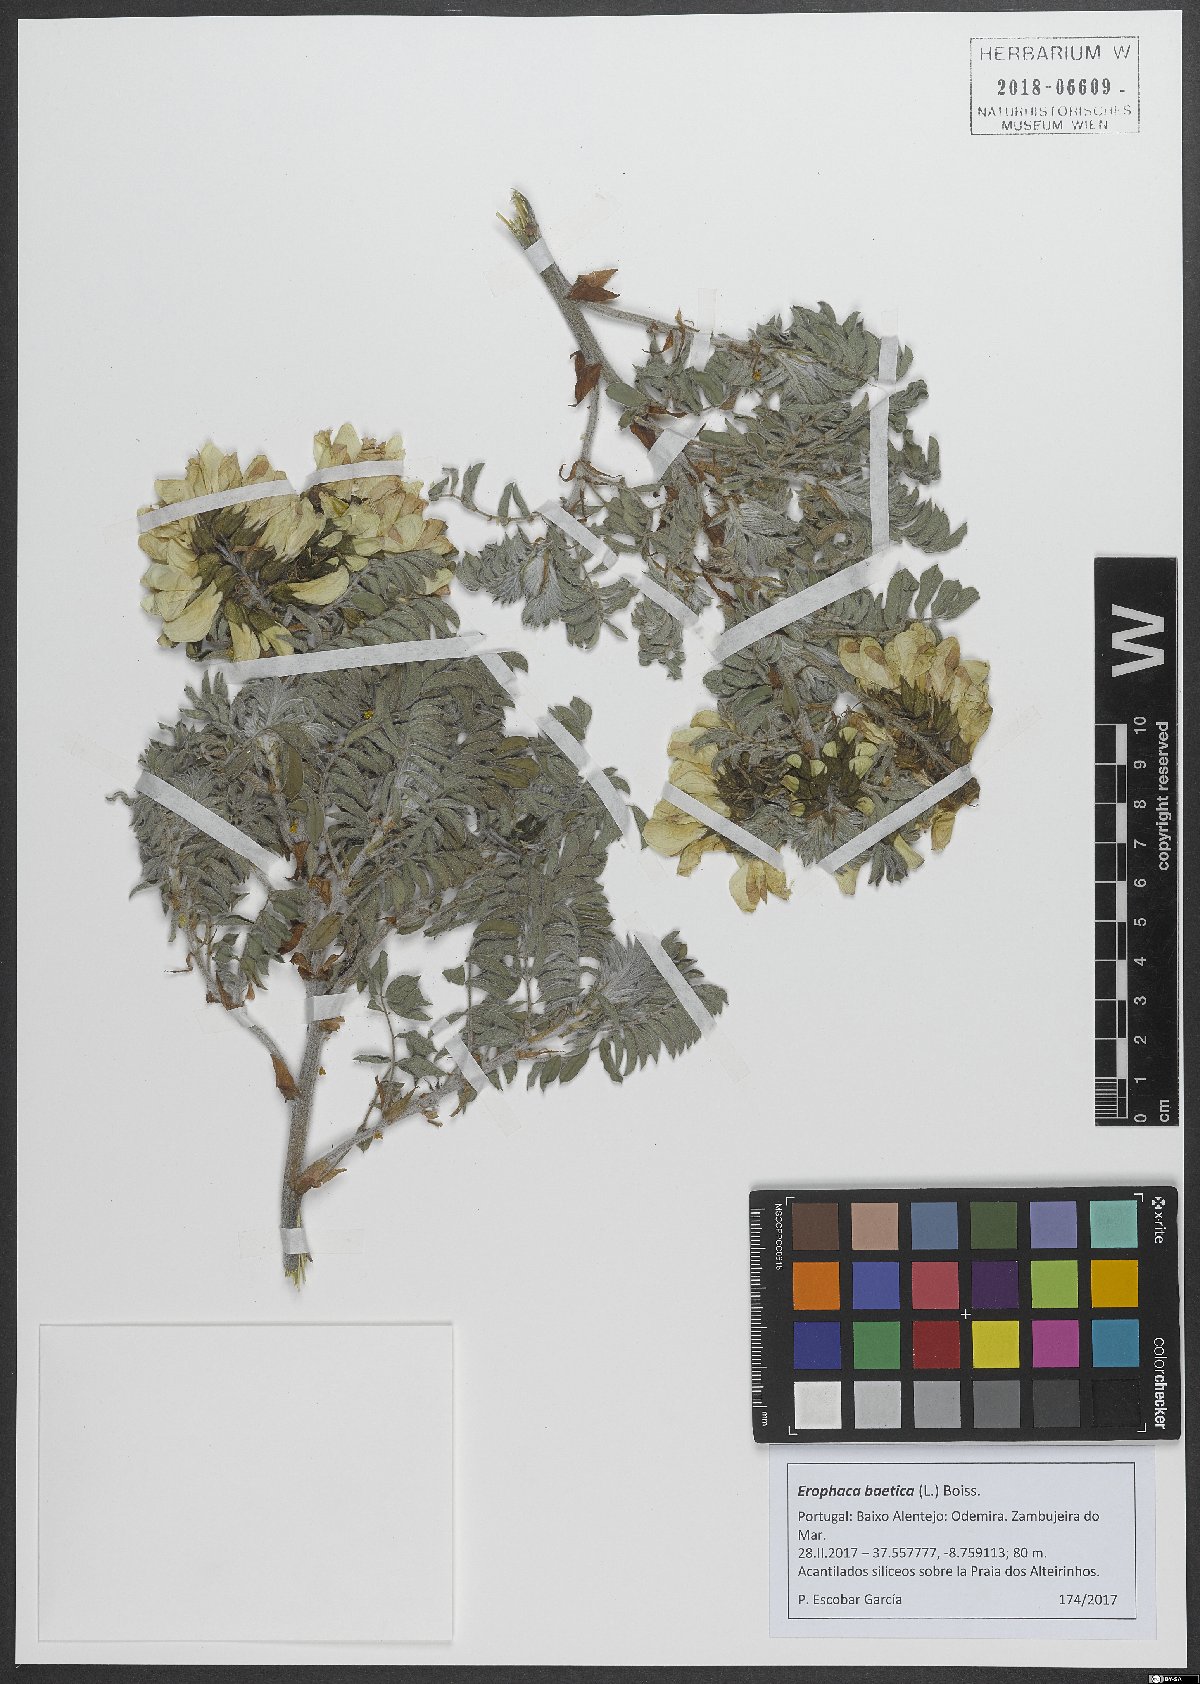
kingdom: Plantae
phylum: Tracheophyta
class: Magnoliopsida
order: Fabales
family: Fabaceae
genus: Erophaca
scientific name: Erophaca baetica
